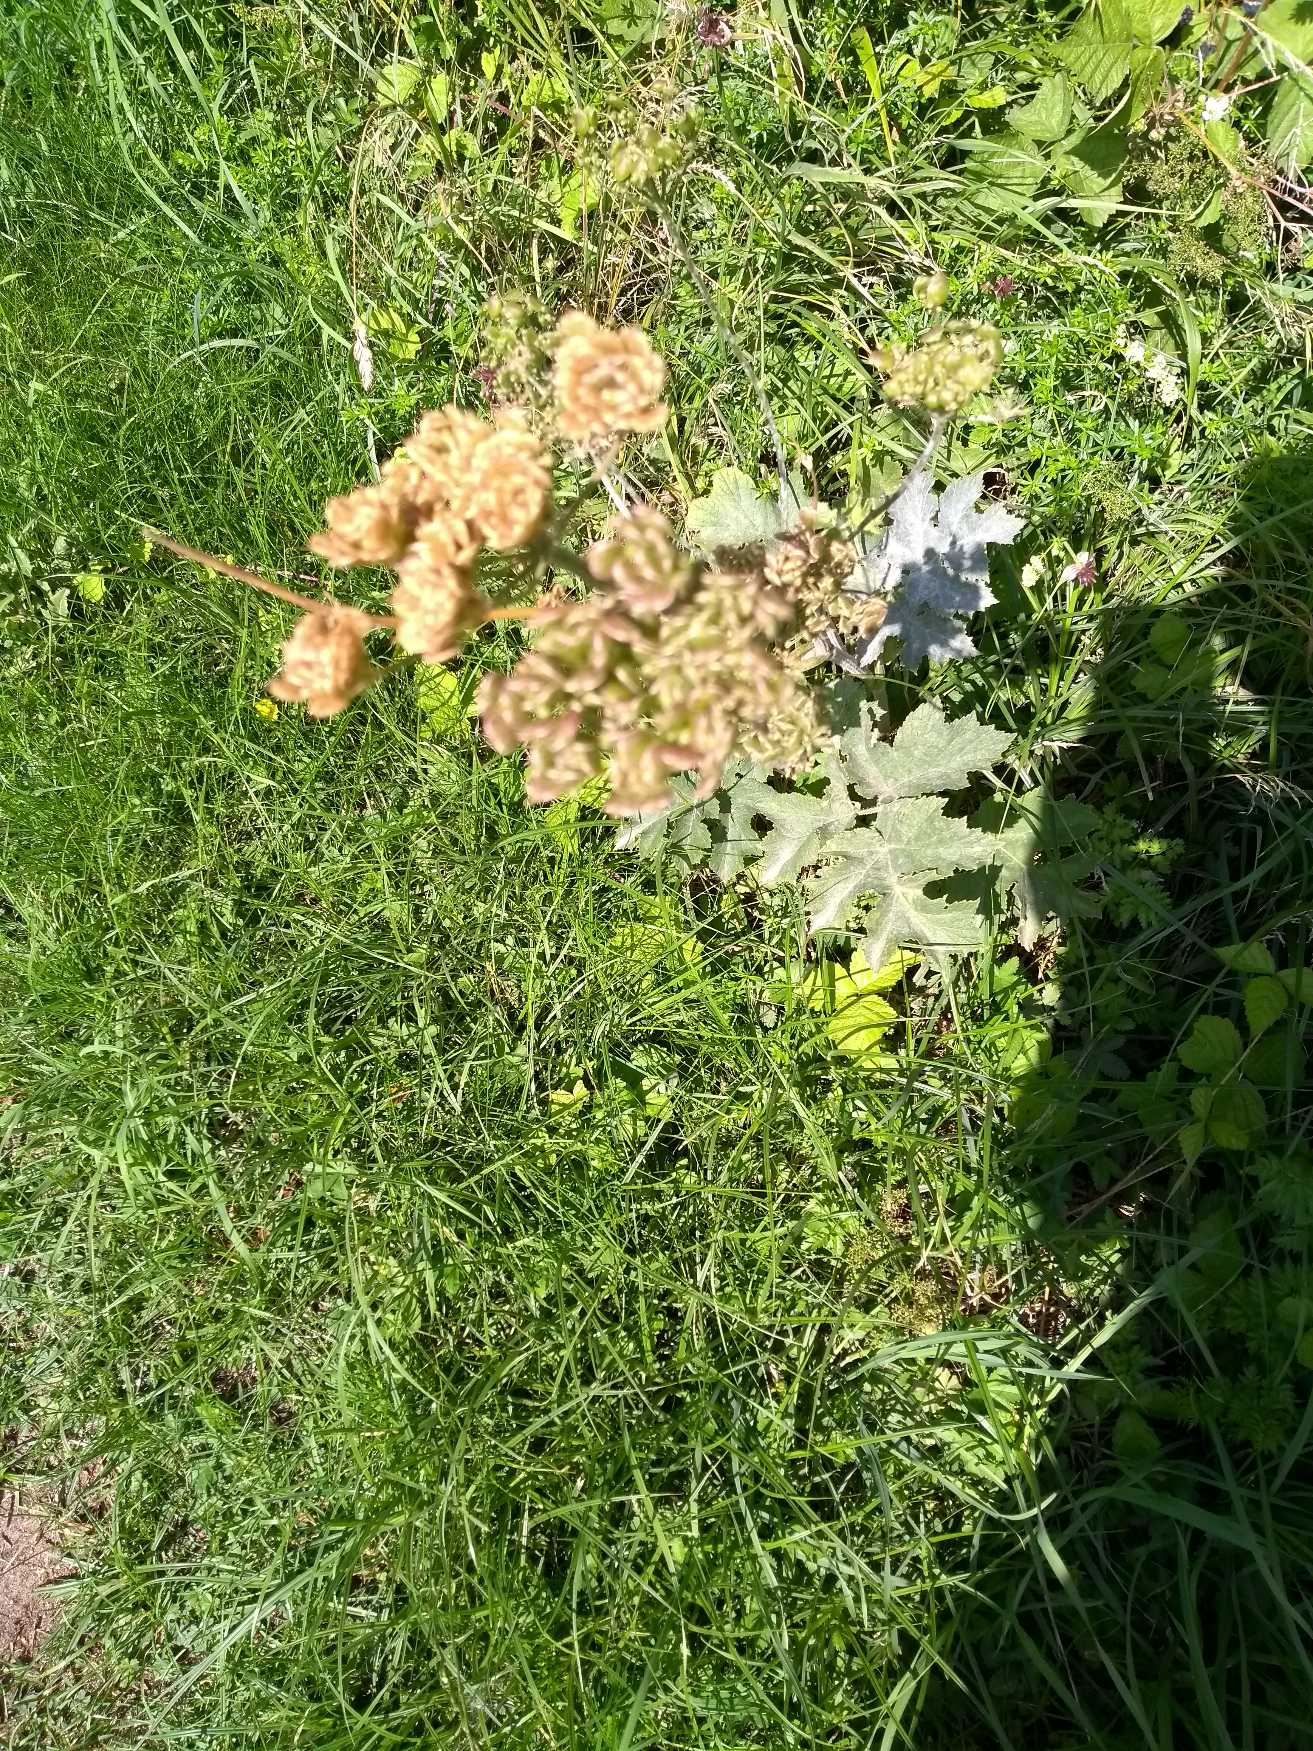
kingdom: Plantae
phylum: Tracheophyta
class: Magnoliopsida
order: Apiales
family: Apiaceae
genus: Heracleum
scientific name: Heracleum sphondylium
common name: Almindelig bjørneklo
